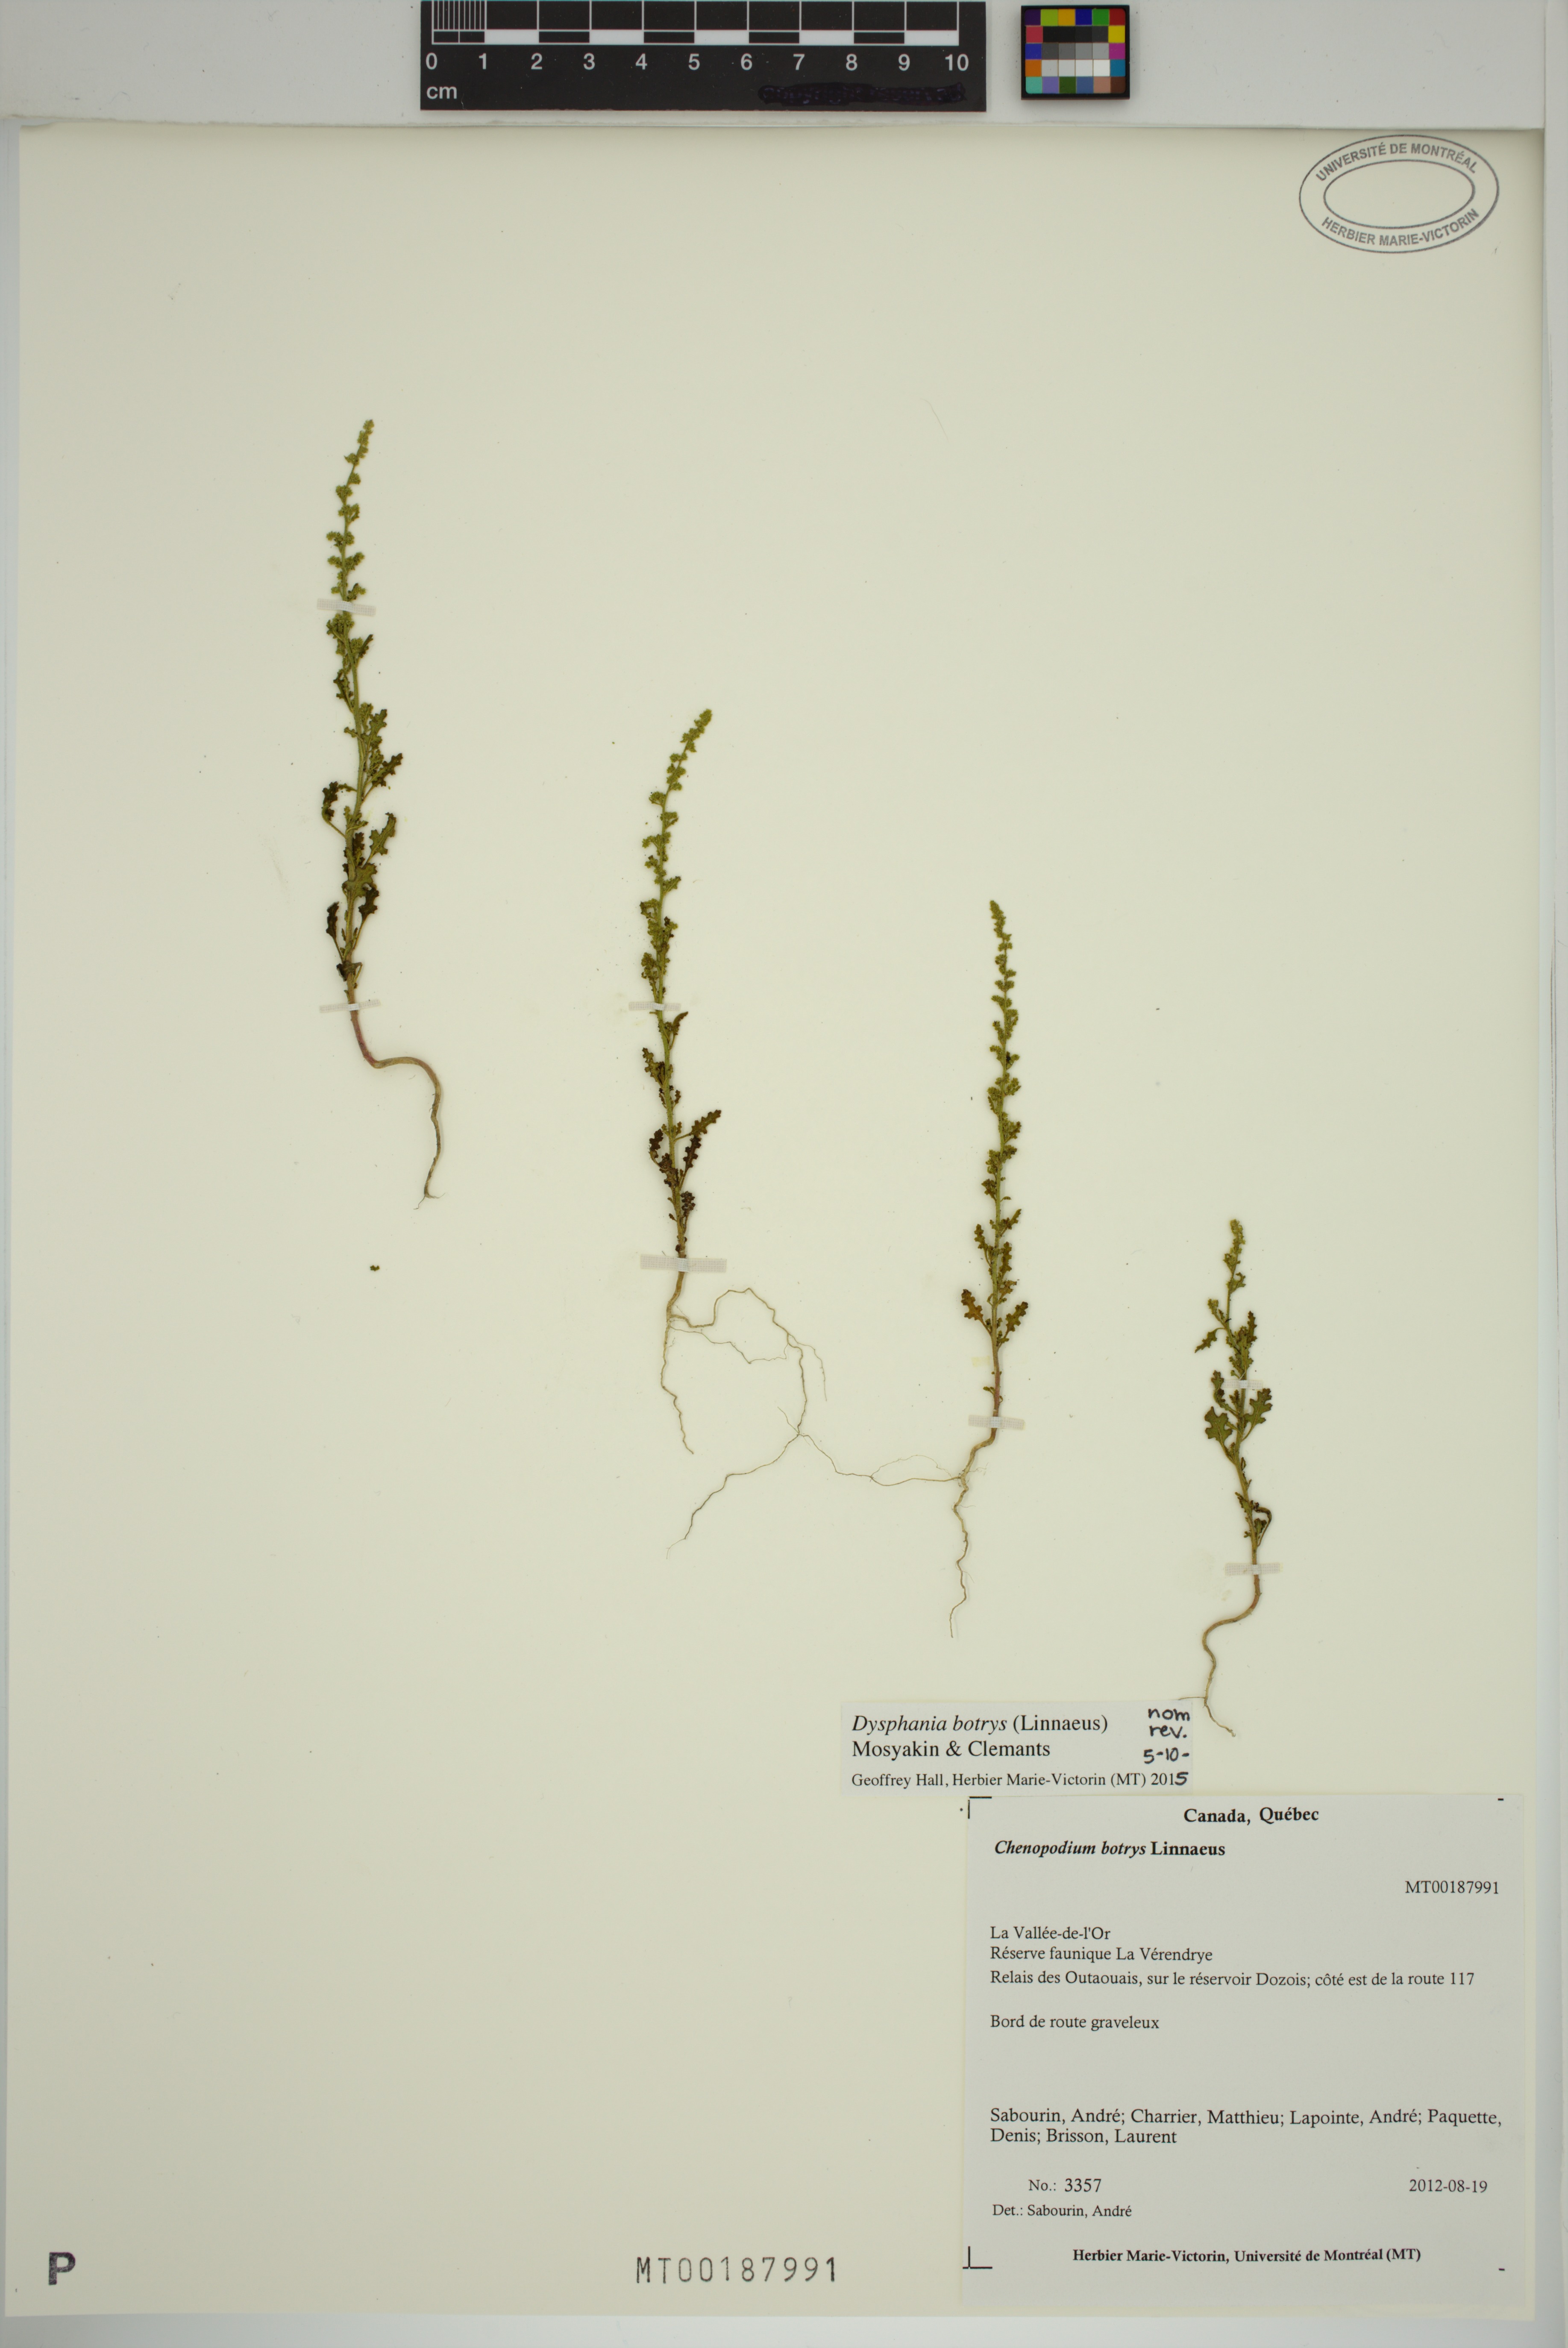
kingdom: Plantae
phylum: Tracheophyta
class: Magnoliopsida
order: Caryophyllales
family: Amaranthaceae
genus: Dysphania
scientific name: Dysphania botrys
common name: Feather-geranium
